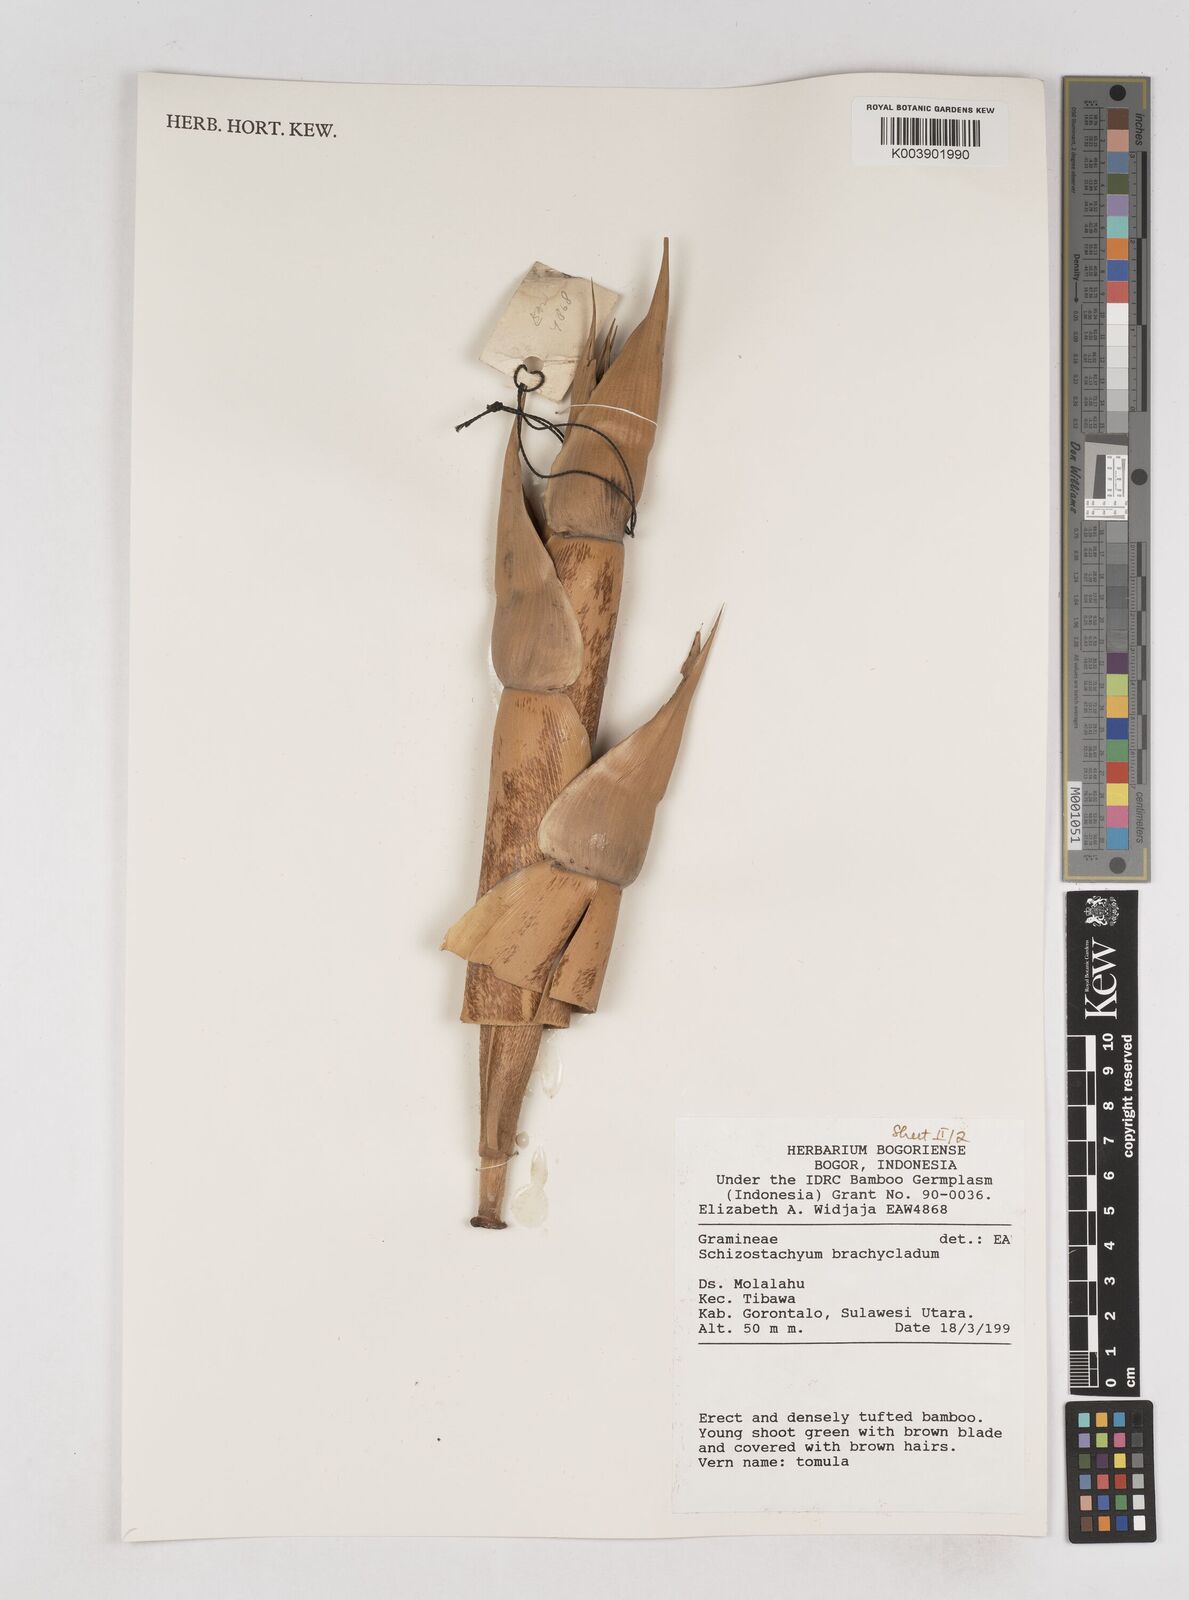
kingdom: Plantae
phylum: Tracheophyta
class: Liliopsida
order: Poales
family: Poaceae
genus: Schizostachyum
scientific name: Schizostachyum brachycladum
